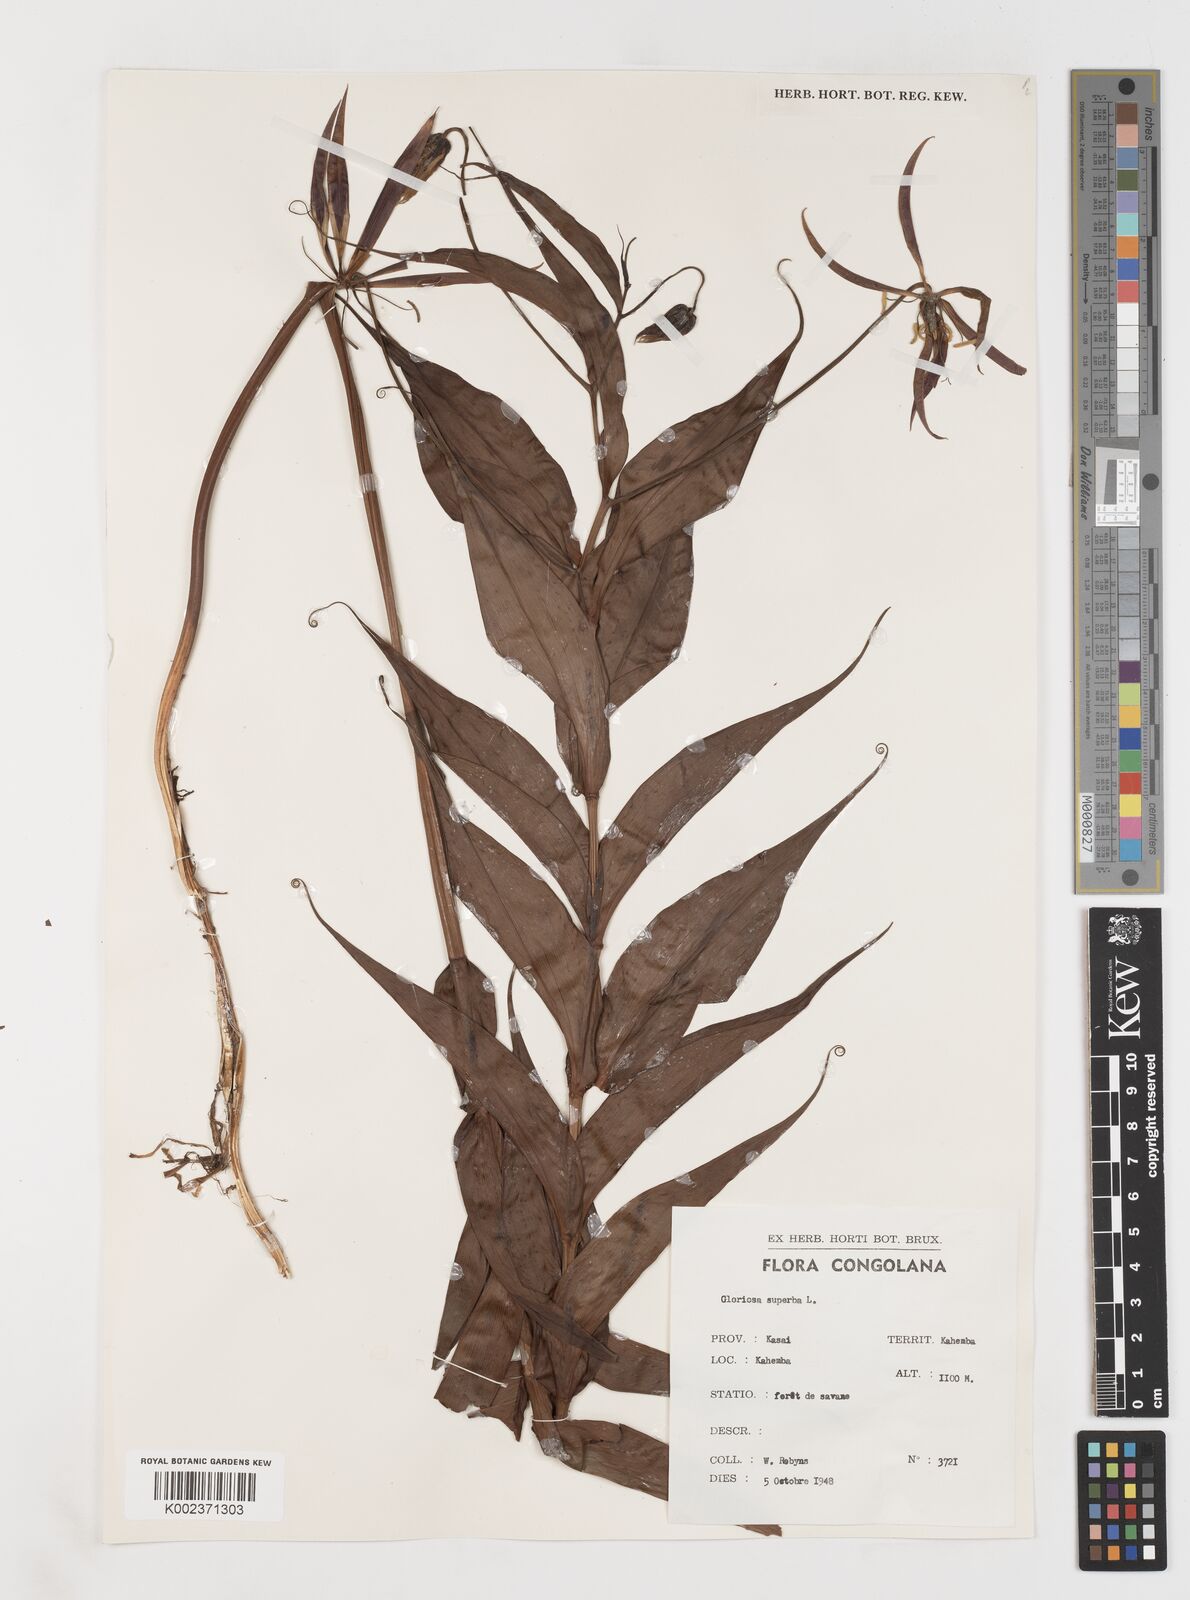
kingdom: Plantae
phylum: Tracheophyta
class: Liliopsida
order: Liliales
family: Colchicaceae
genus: Gloriosa
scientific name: Gloriosa simplex
